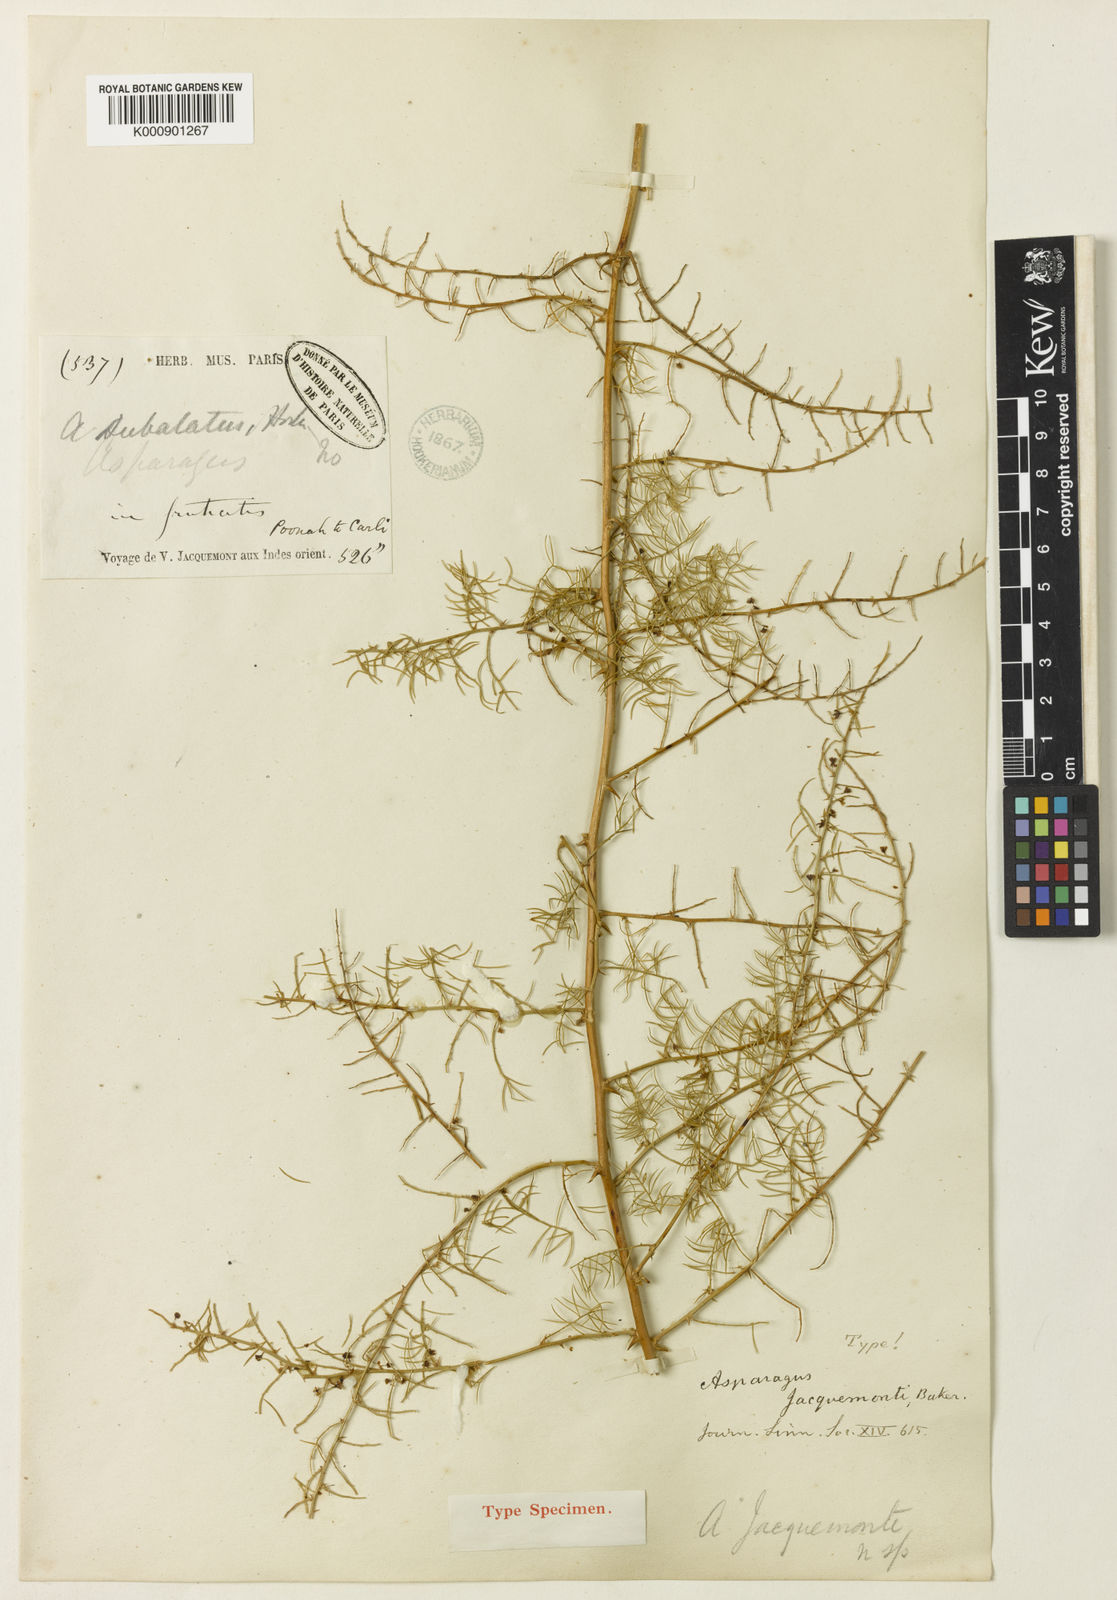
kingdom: Plantae
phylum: Tracheophyta
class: Liliopsida
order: Asparagales
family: Asparagaceae
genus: Asparagus
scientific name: Asparagus racemosus
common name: Asparagus-fern
